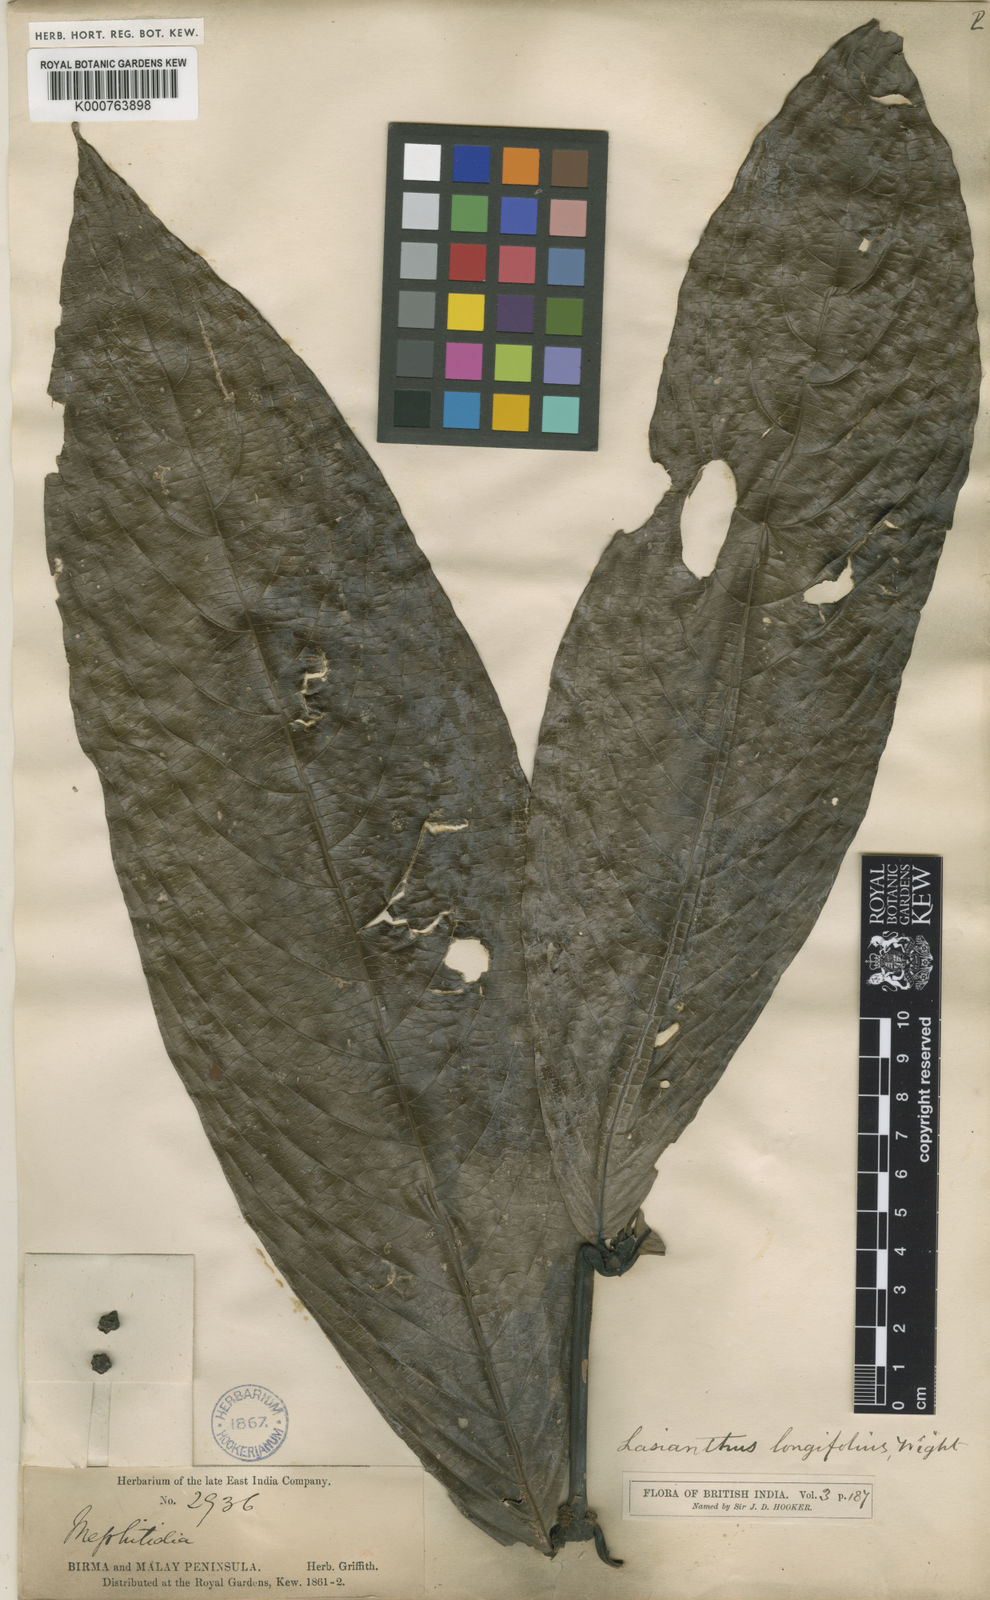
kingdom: Plantae
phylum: Tracheophyta
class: Magnoliopsida
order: Gentianales
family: Rubiaceae
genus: Lasianthus
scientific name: Lasianthus longifolius
